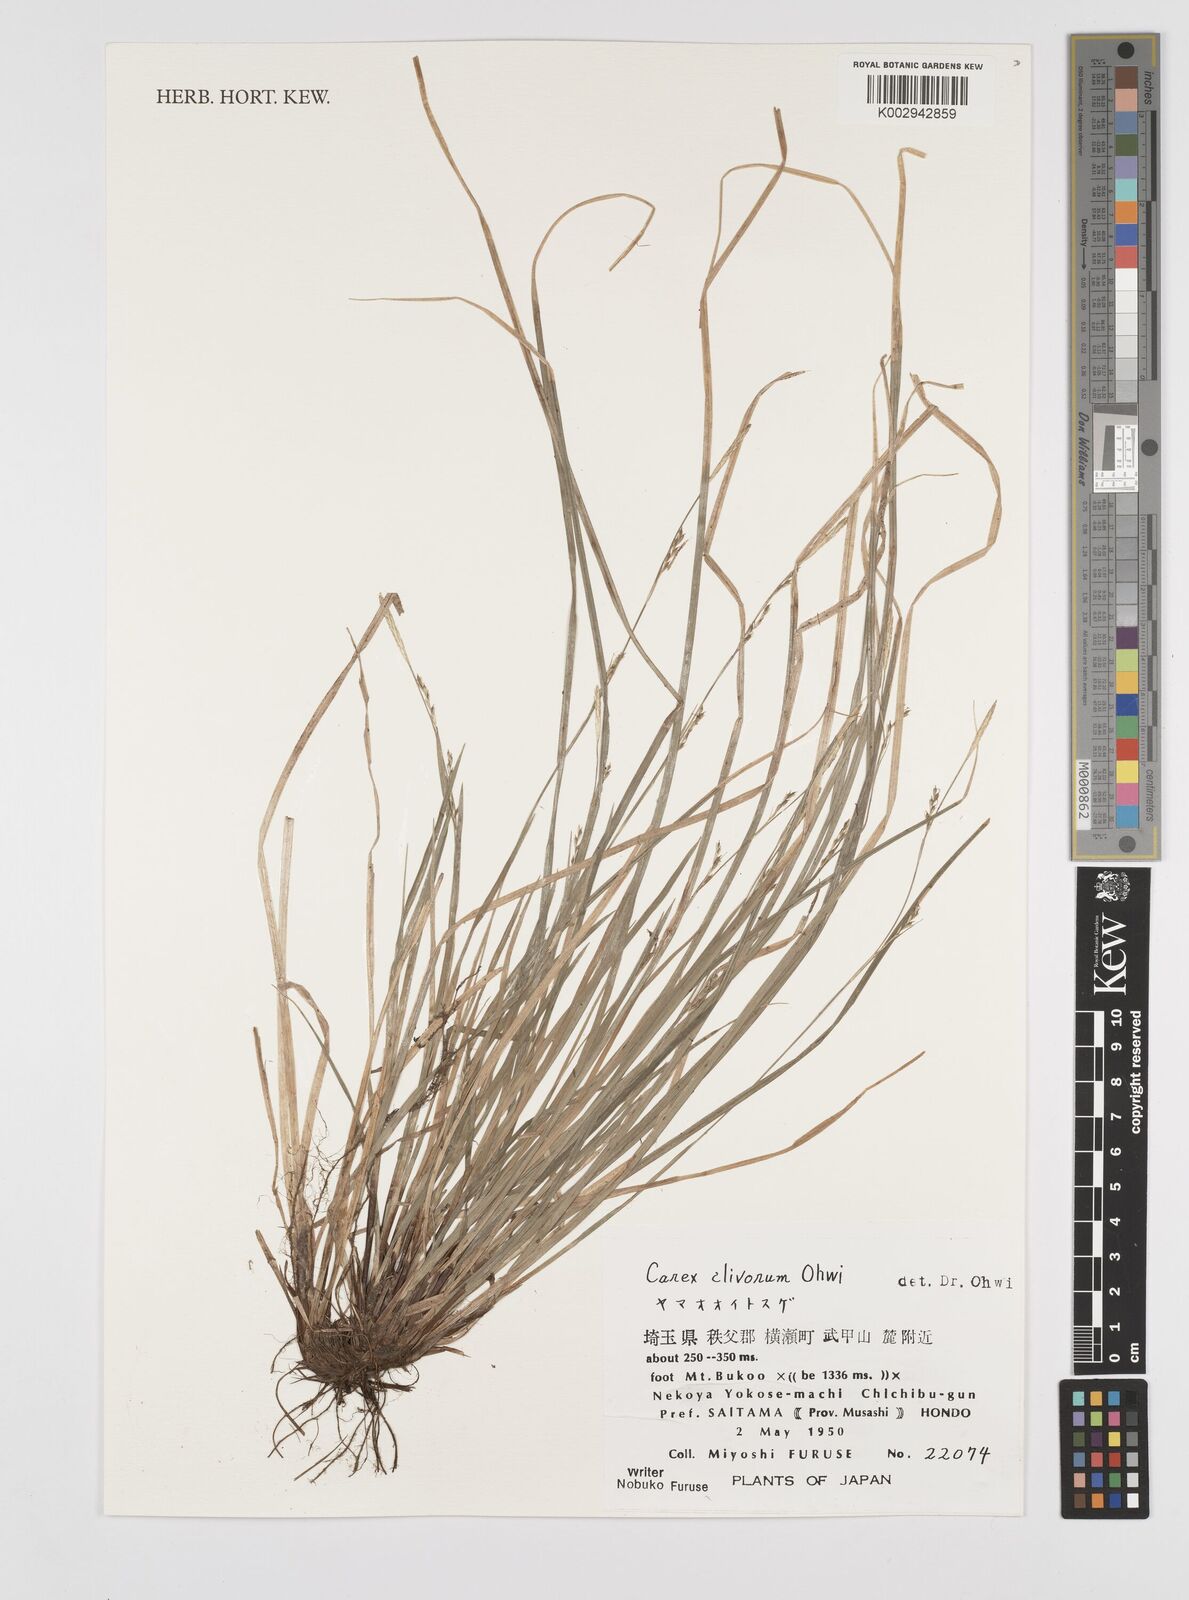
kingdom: Plantae
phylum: Tracheophyta
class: Liliopsida
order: Poales
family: Cyperaceae
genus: Carex
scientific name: Carex clivorum
